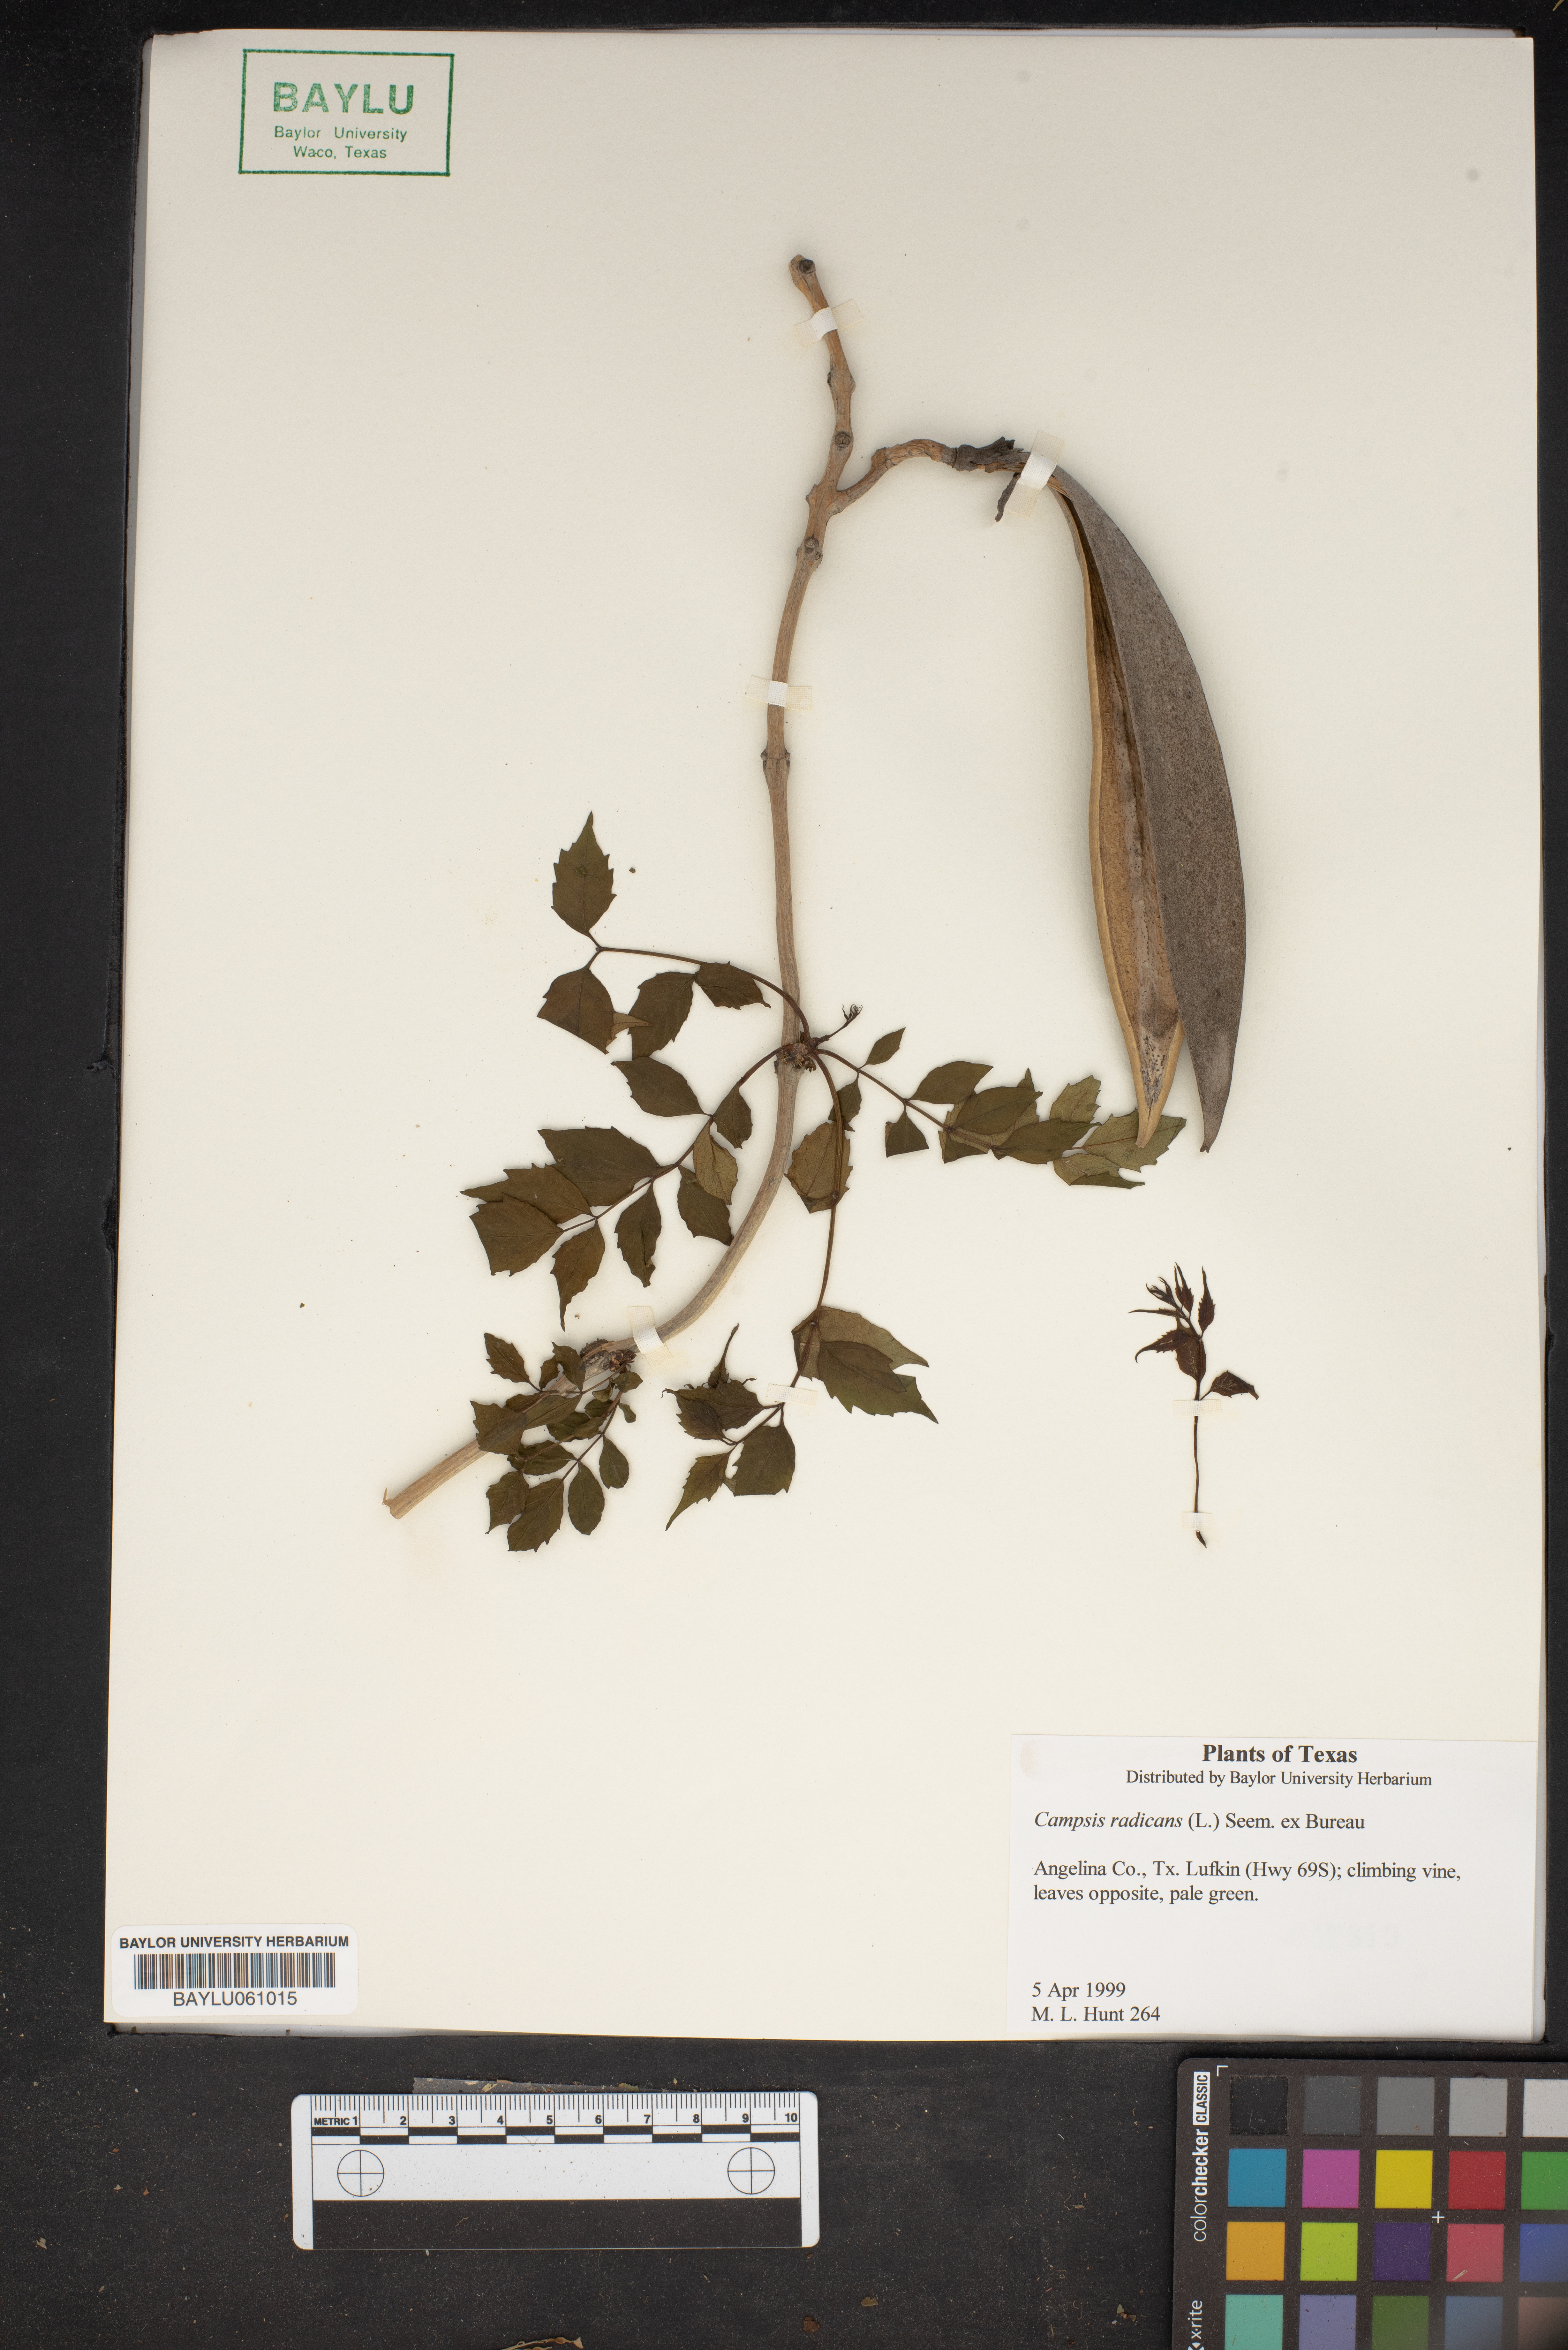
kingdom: Plantae
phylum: Tracheophyta
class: Magnoliopsida
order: Lamiales
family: Bignoniaceae
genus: Campsis
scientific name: Campsis radicans
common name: Trumpet-creeper
